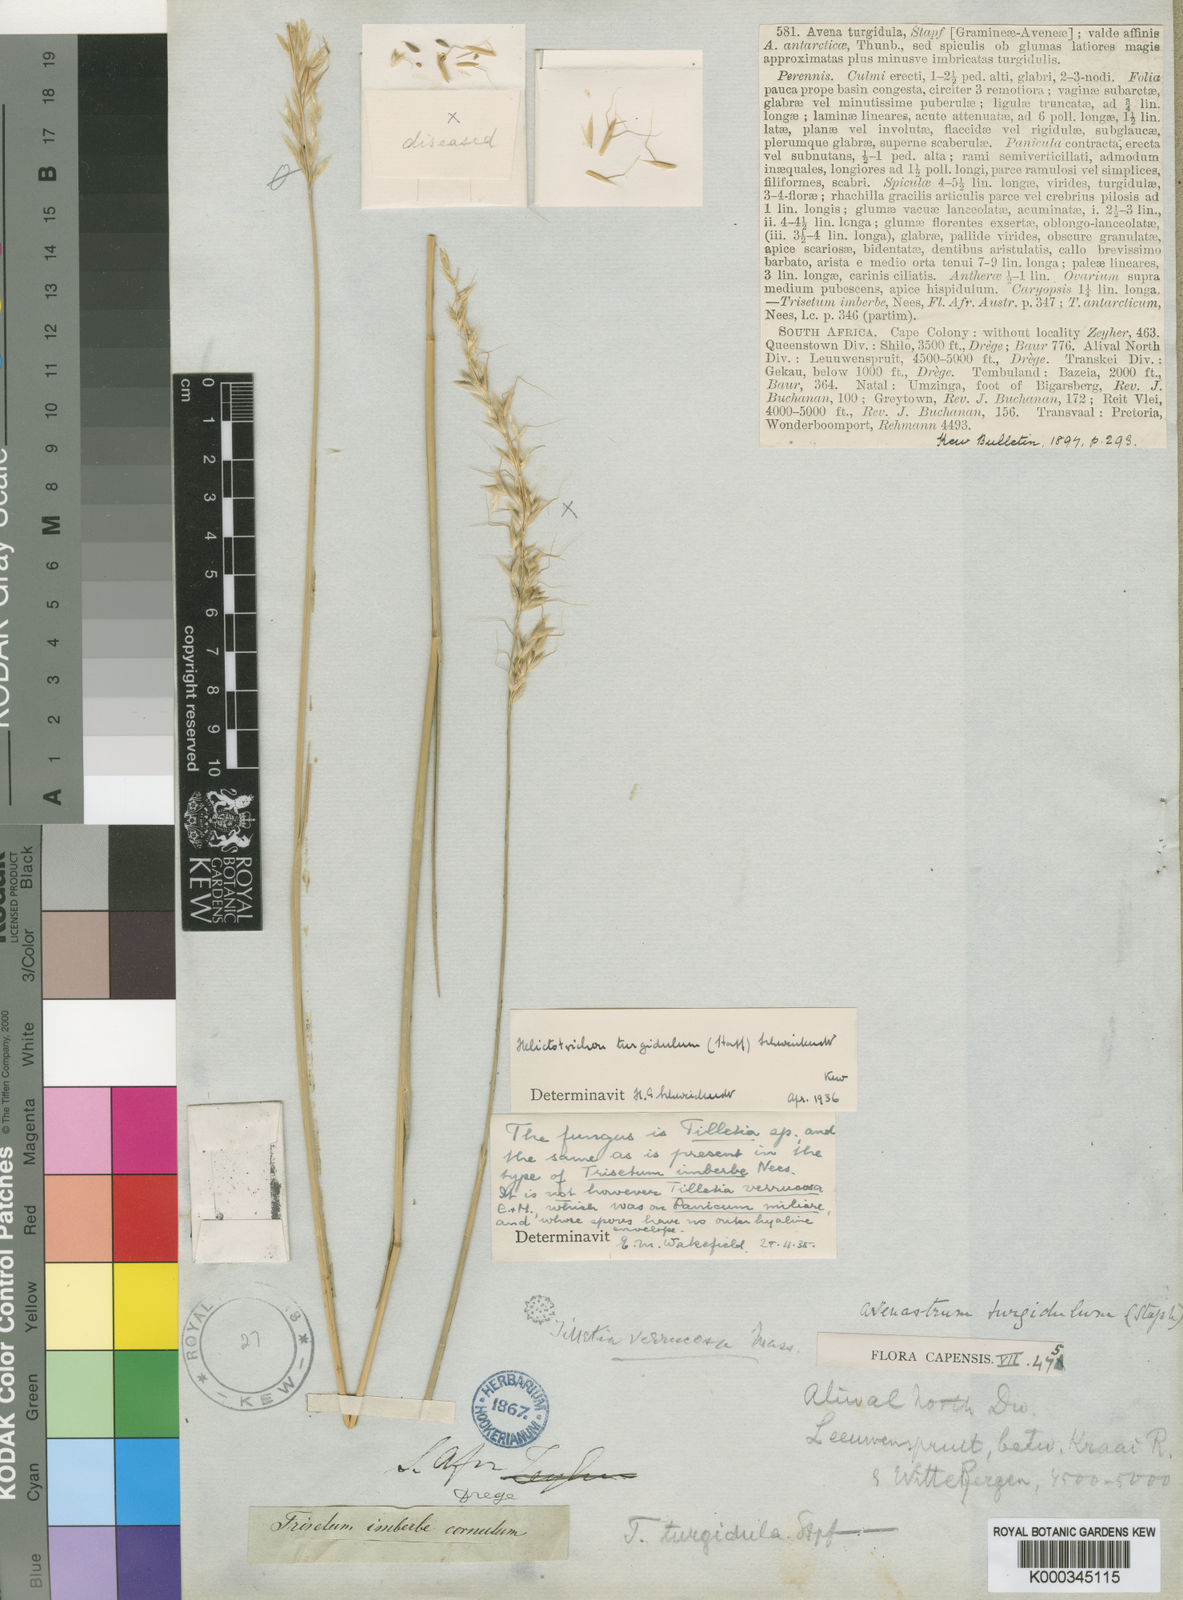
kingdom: Plantae
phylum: Tracheophyta
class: Liliopsida
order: Poales
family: Poaceae
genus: Trisetopsis
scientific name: Trisetopsis imberbis
